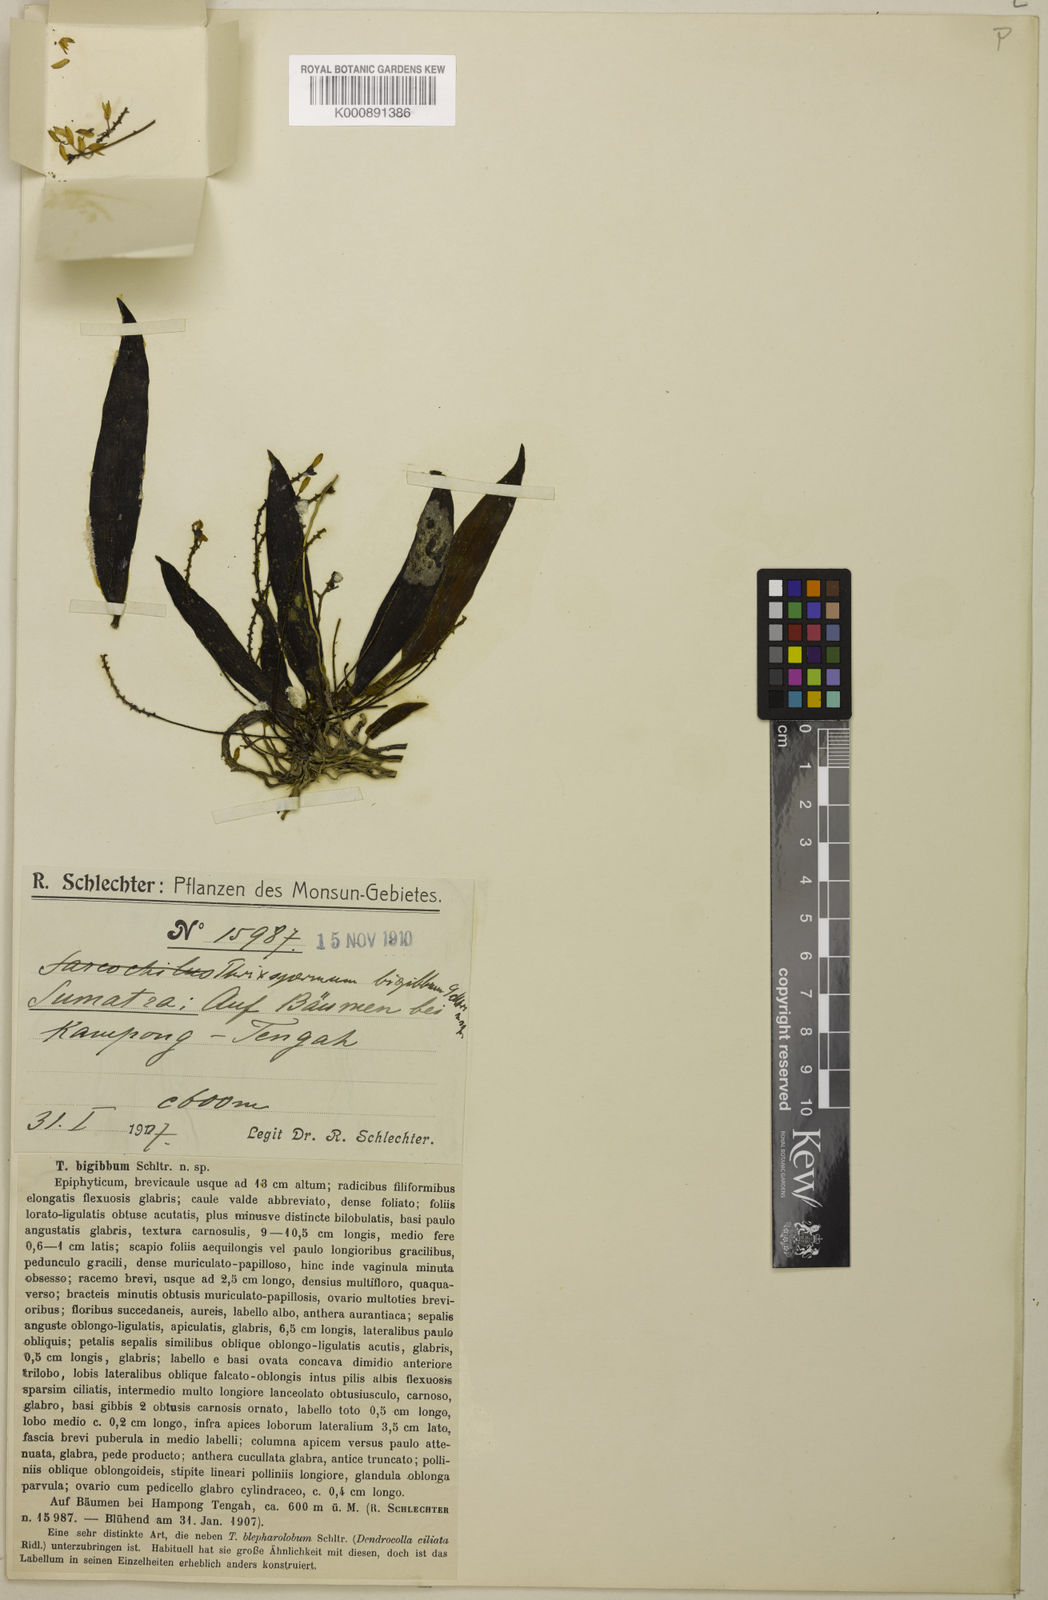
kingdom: Plantae
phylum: Tracheophyta
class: Liliopsida
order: Asparagales
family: Orchidaceae
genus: Grosourdya
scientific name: Grosourdya bigibba
